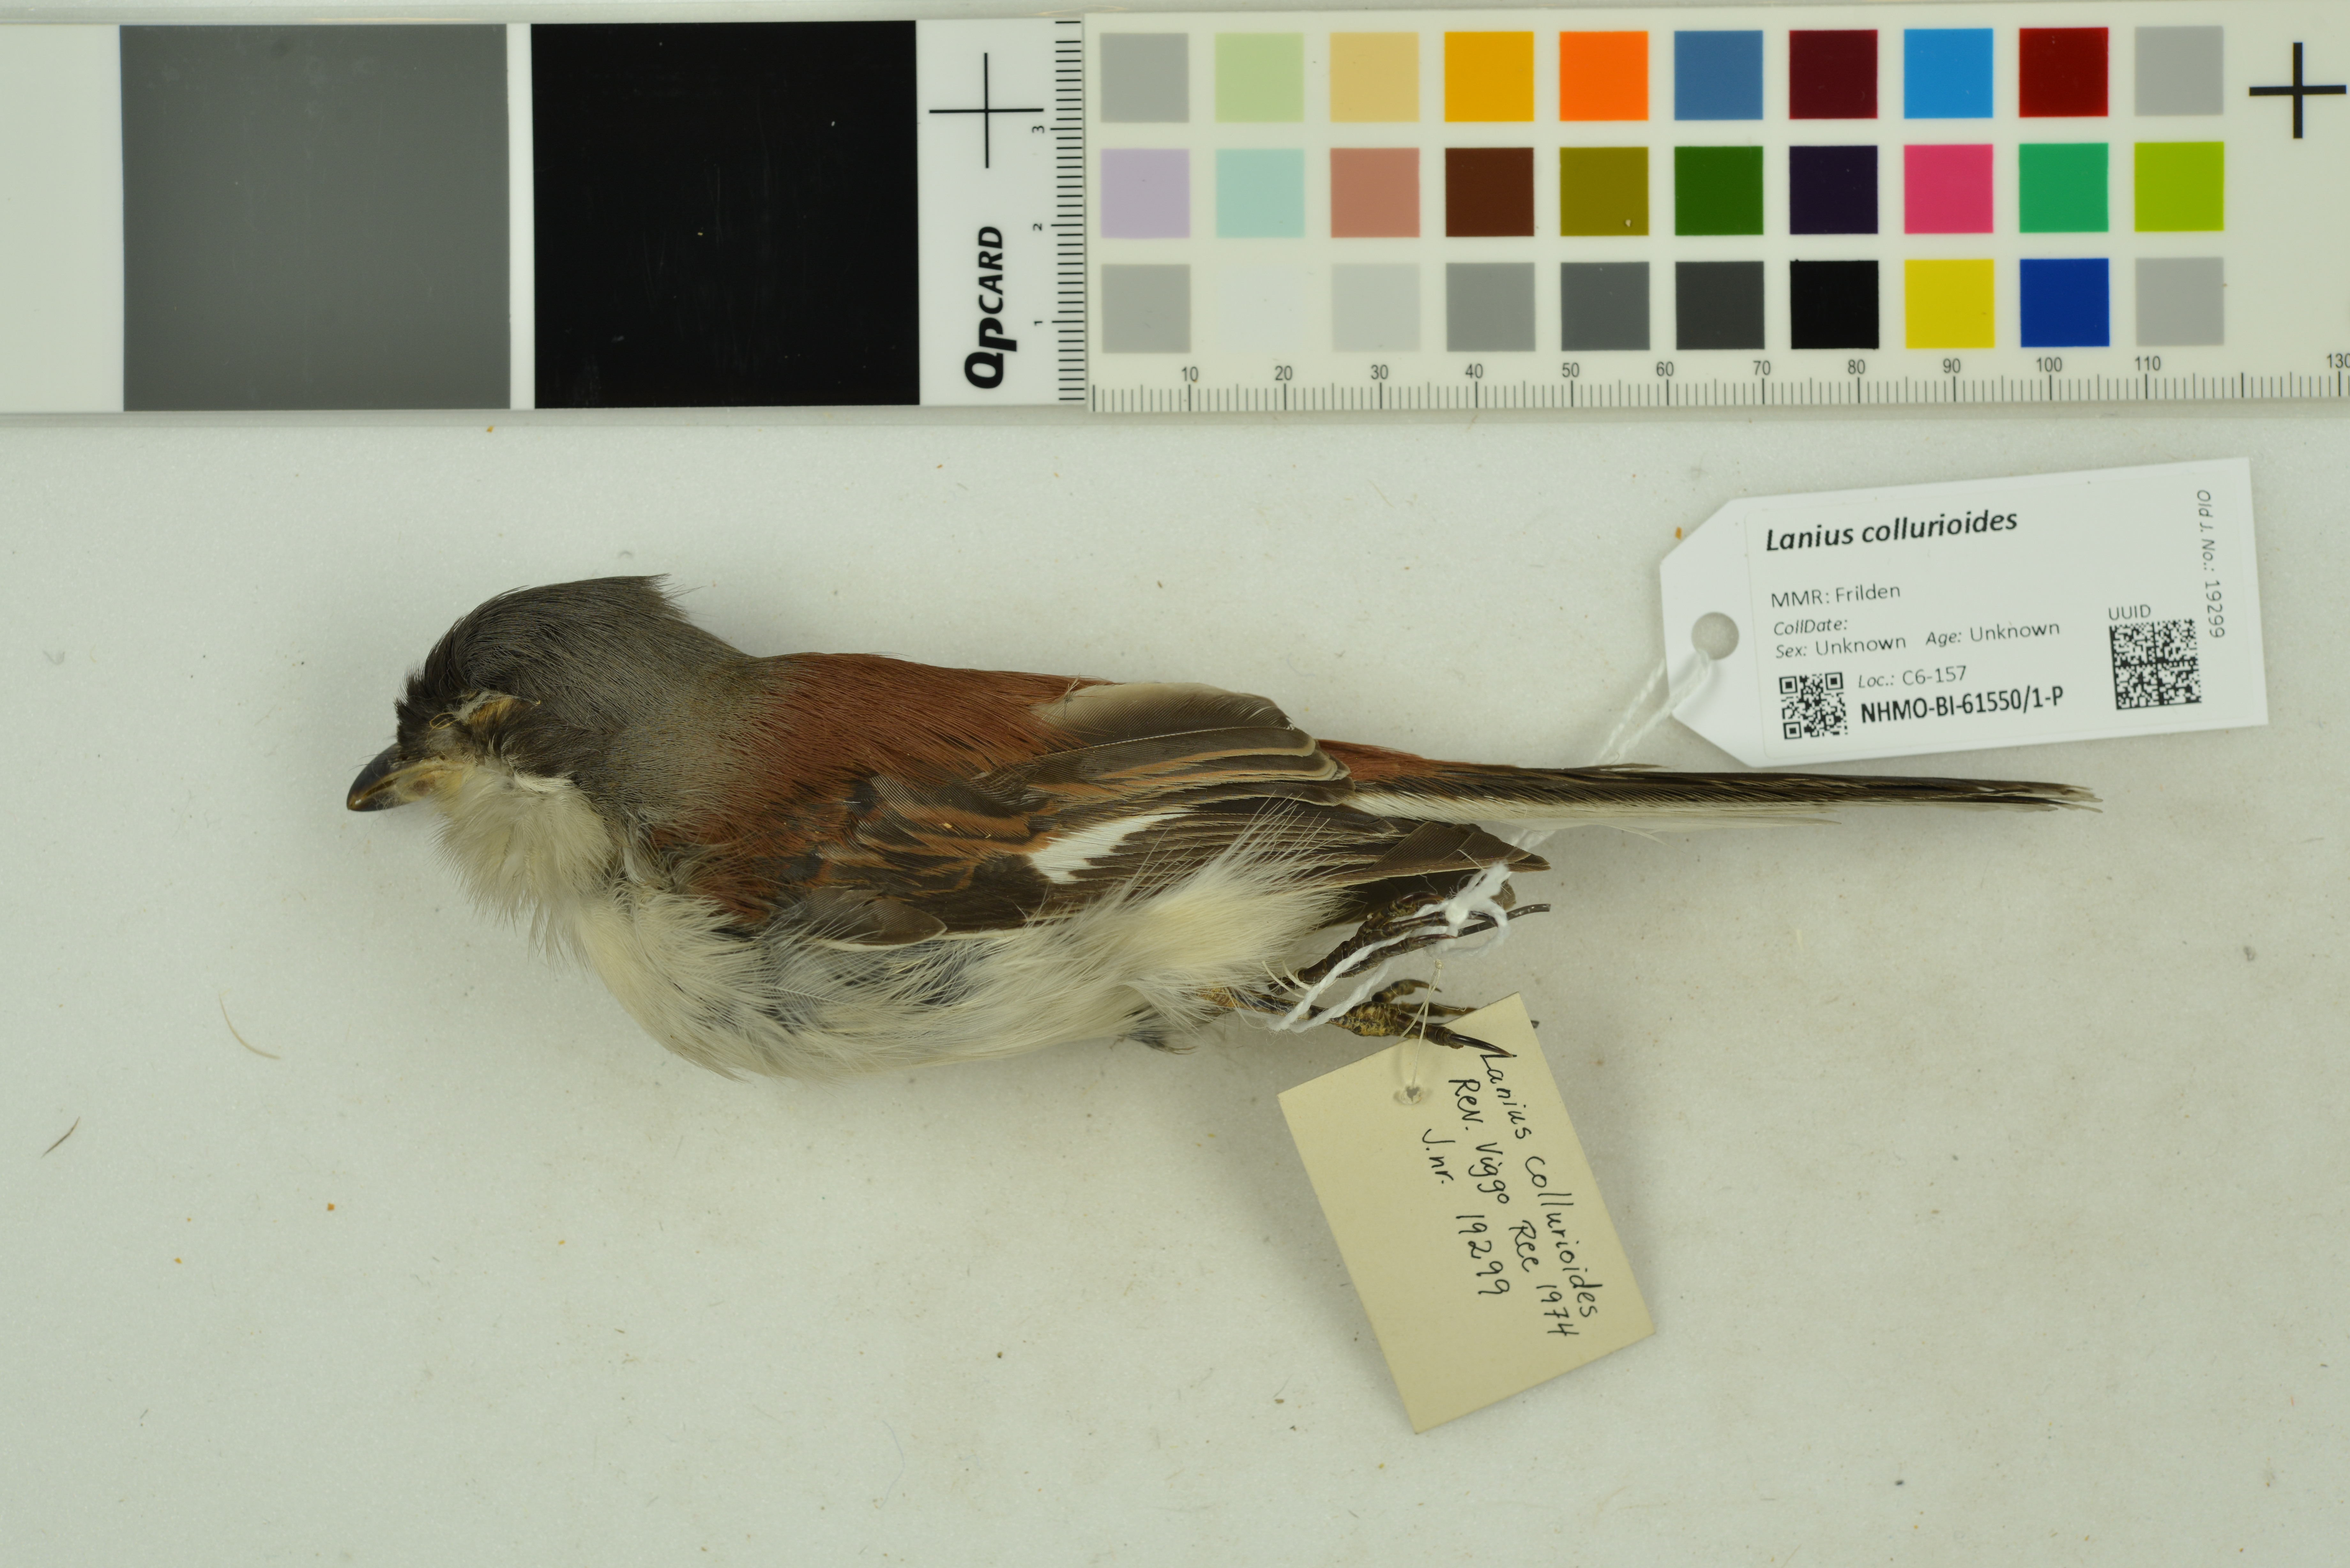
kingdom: Animalia
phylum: Chordata
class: Aves
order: Passeriformes
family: Laniidae
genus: Lanius
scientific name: Lanius collurioides
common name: Burmese shrike
